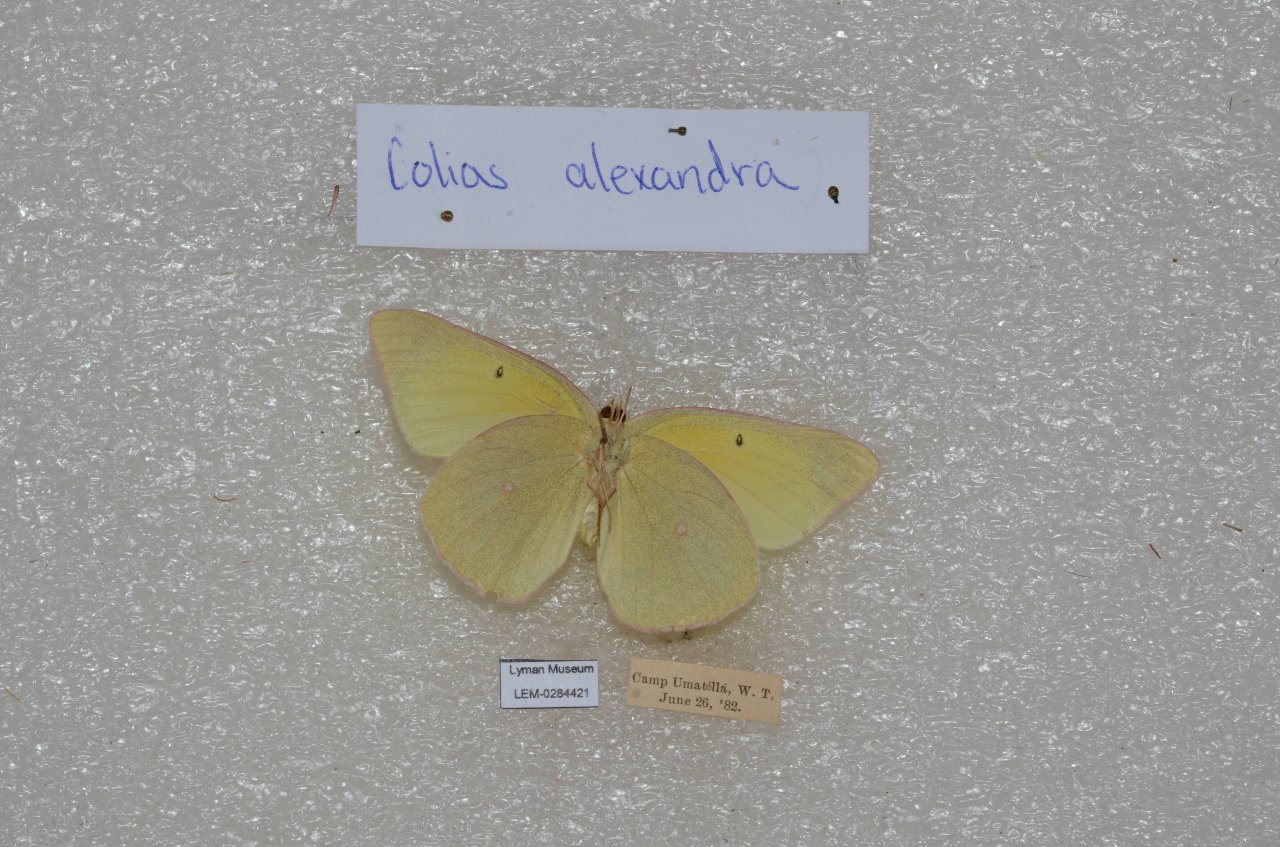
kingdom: Animalia
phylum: Arthropoda
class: Insecta
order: Lepidoptera
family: Pieridae
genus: Colias
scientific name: Colias alexandra
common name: Queen Alexandra's Sulphur
